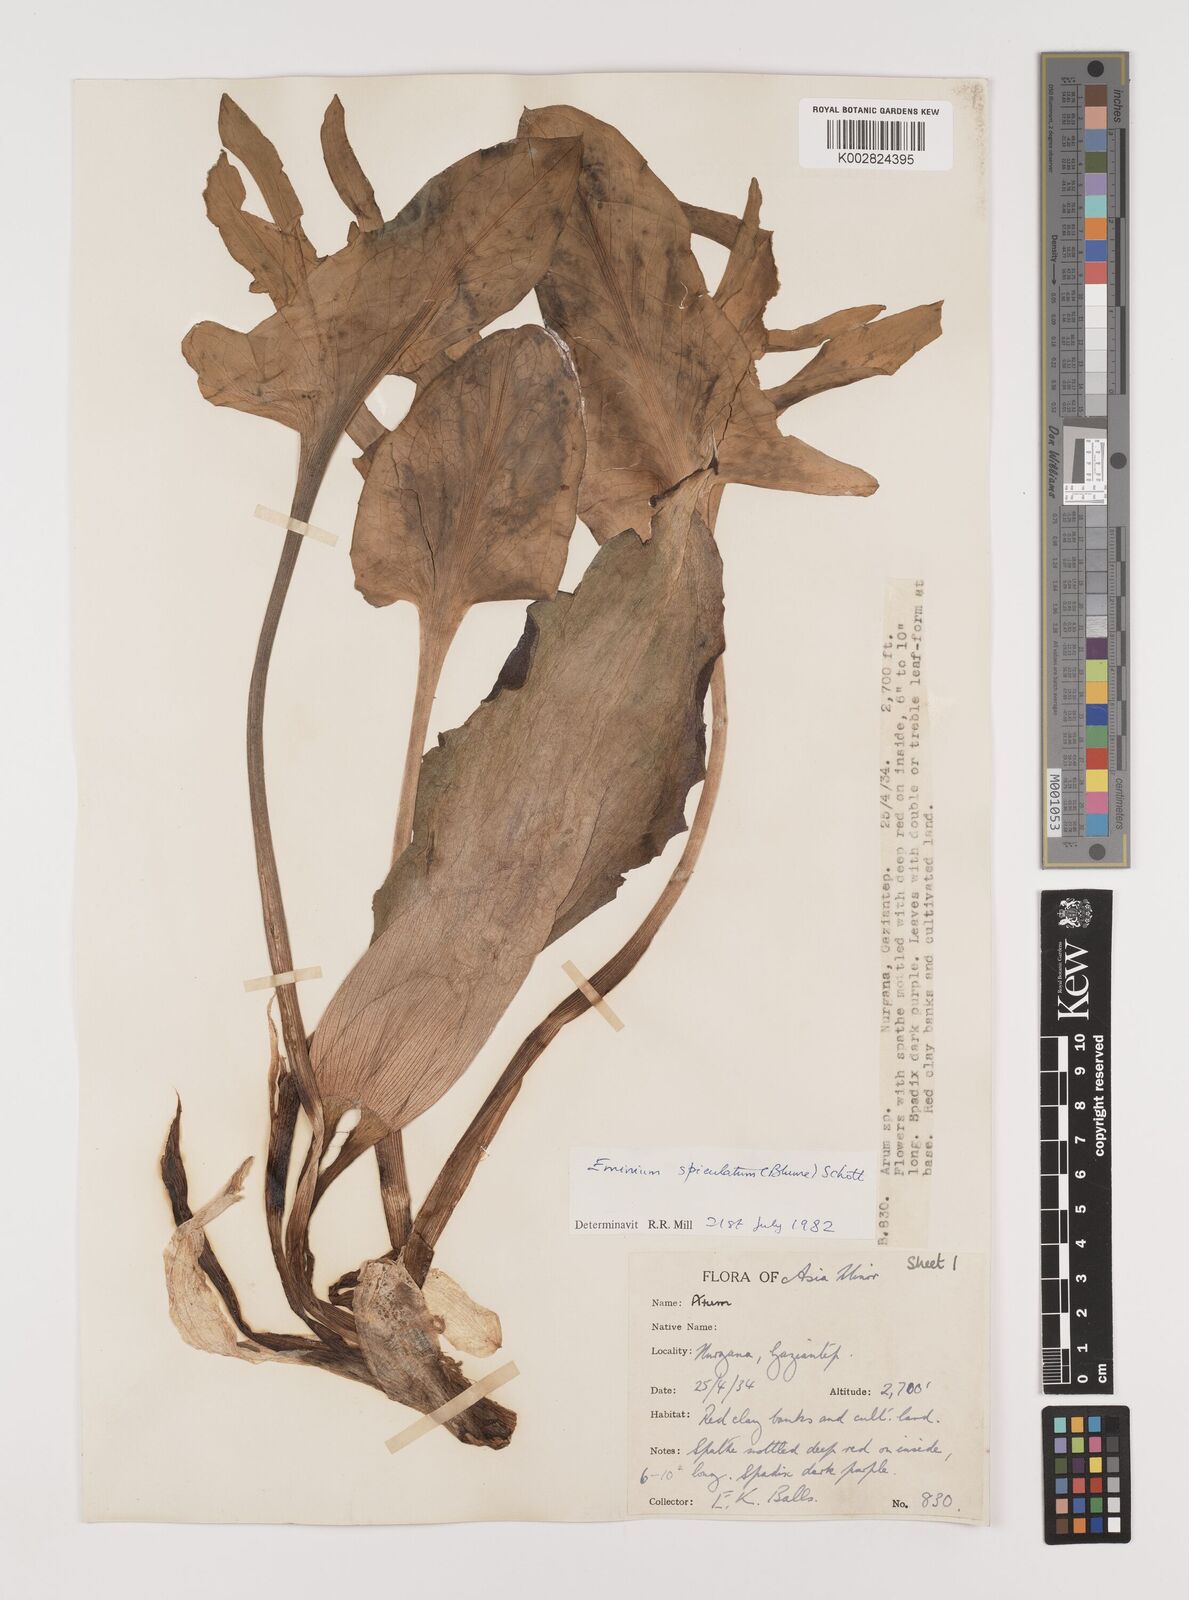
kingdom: Plantae
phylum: Tracheophyta
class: Liliopsida
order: Alismatales
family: Araceae
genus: Eminium
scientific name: Eminium spiculatum
